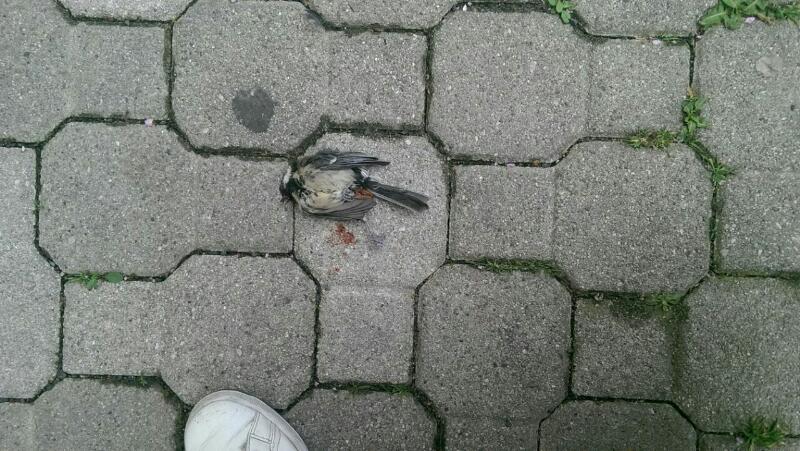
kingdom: Animalia
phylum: Chordata
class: Aves
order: Passeriformes
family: Paridae
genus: Parus
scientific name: Parus major
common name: Great tit
